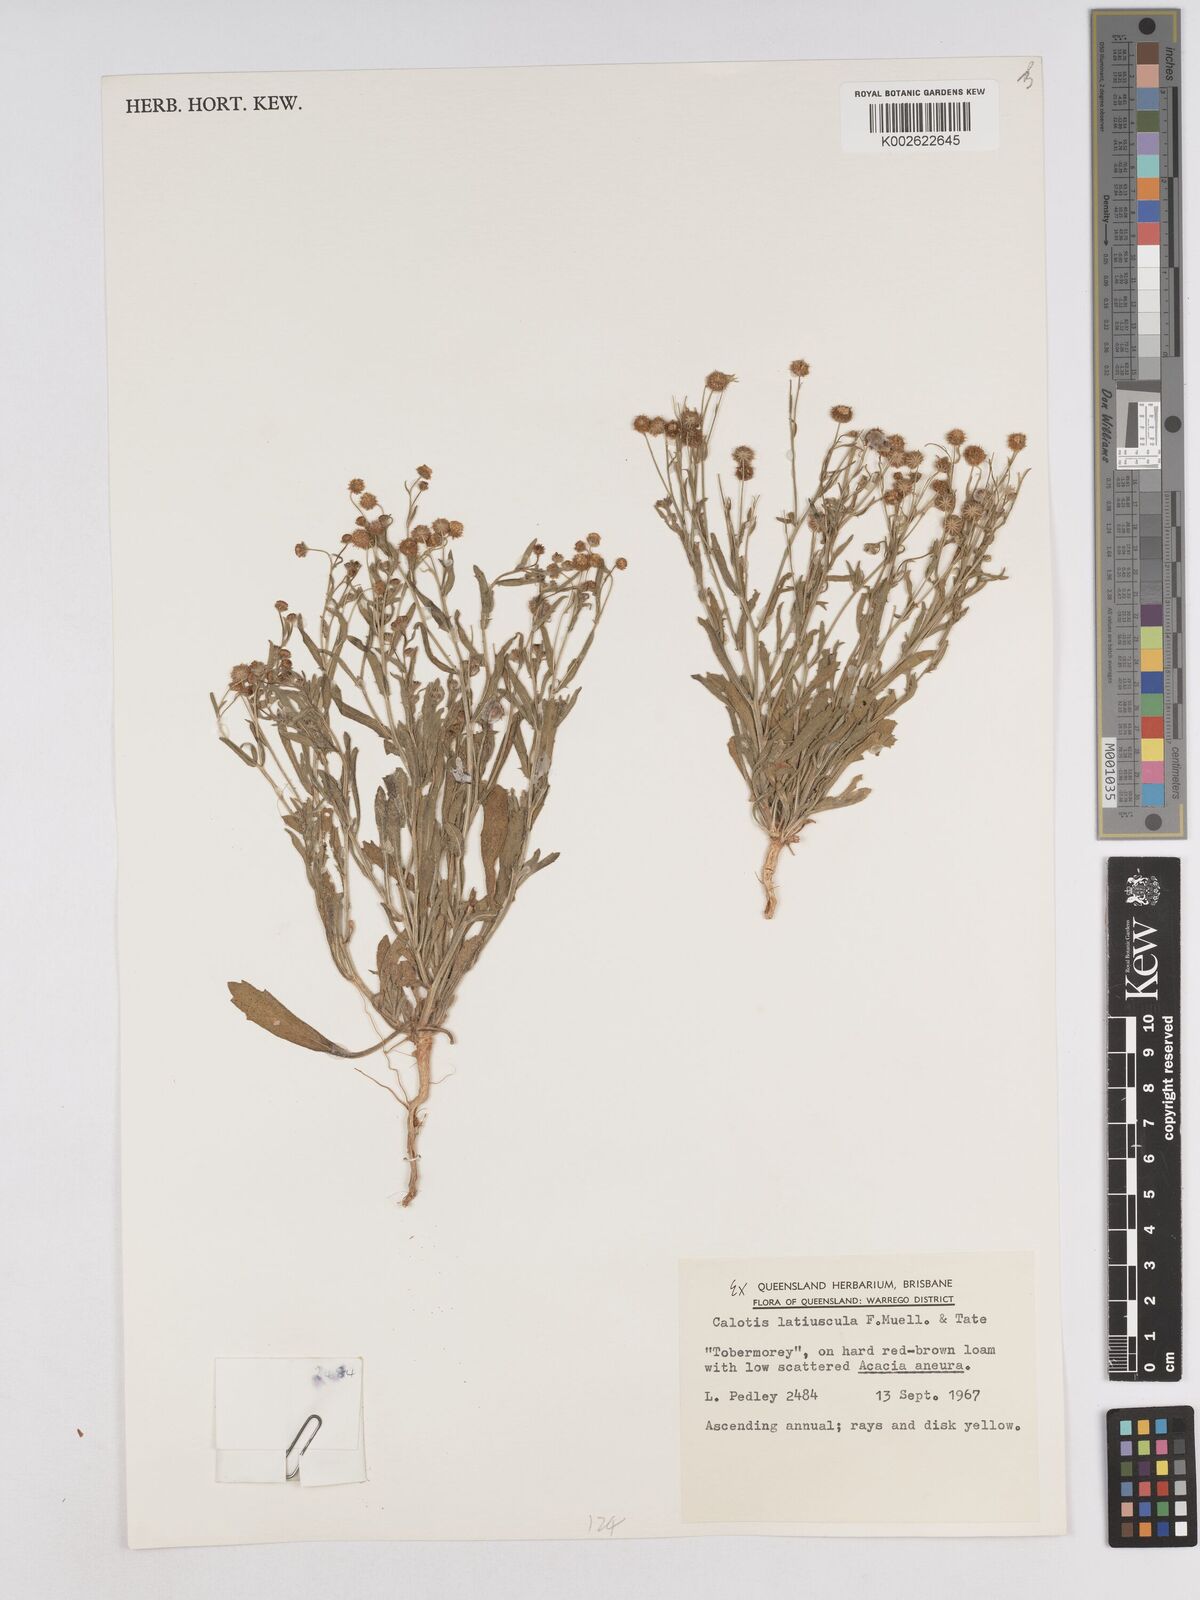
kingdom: Plantae
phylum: Tracheophyta
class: Magnoliopsida
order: Asterales
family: Asteraceae
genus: Calotis
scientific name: Calotis latiuscula
